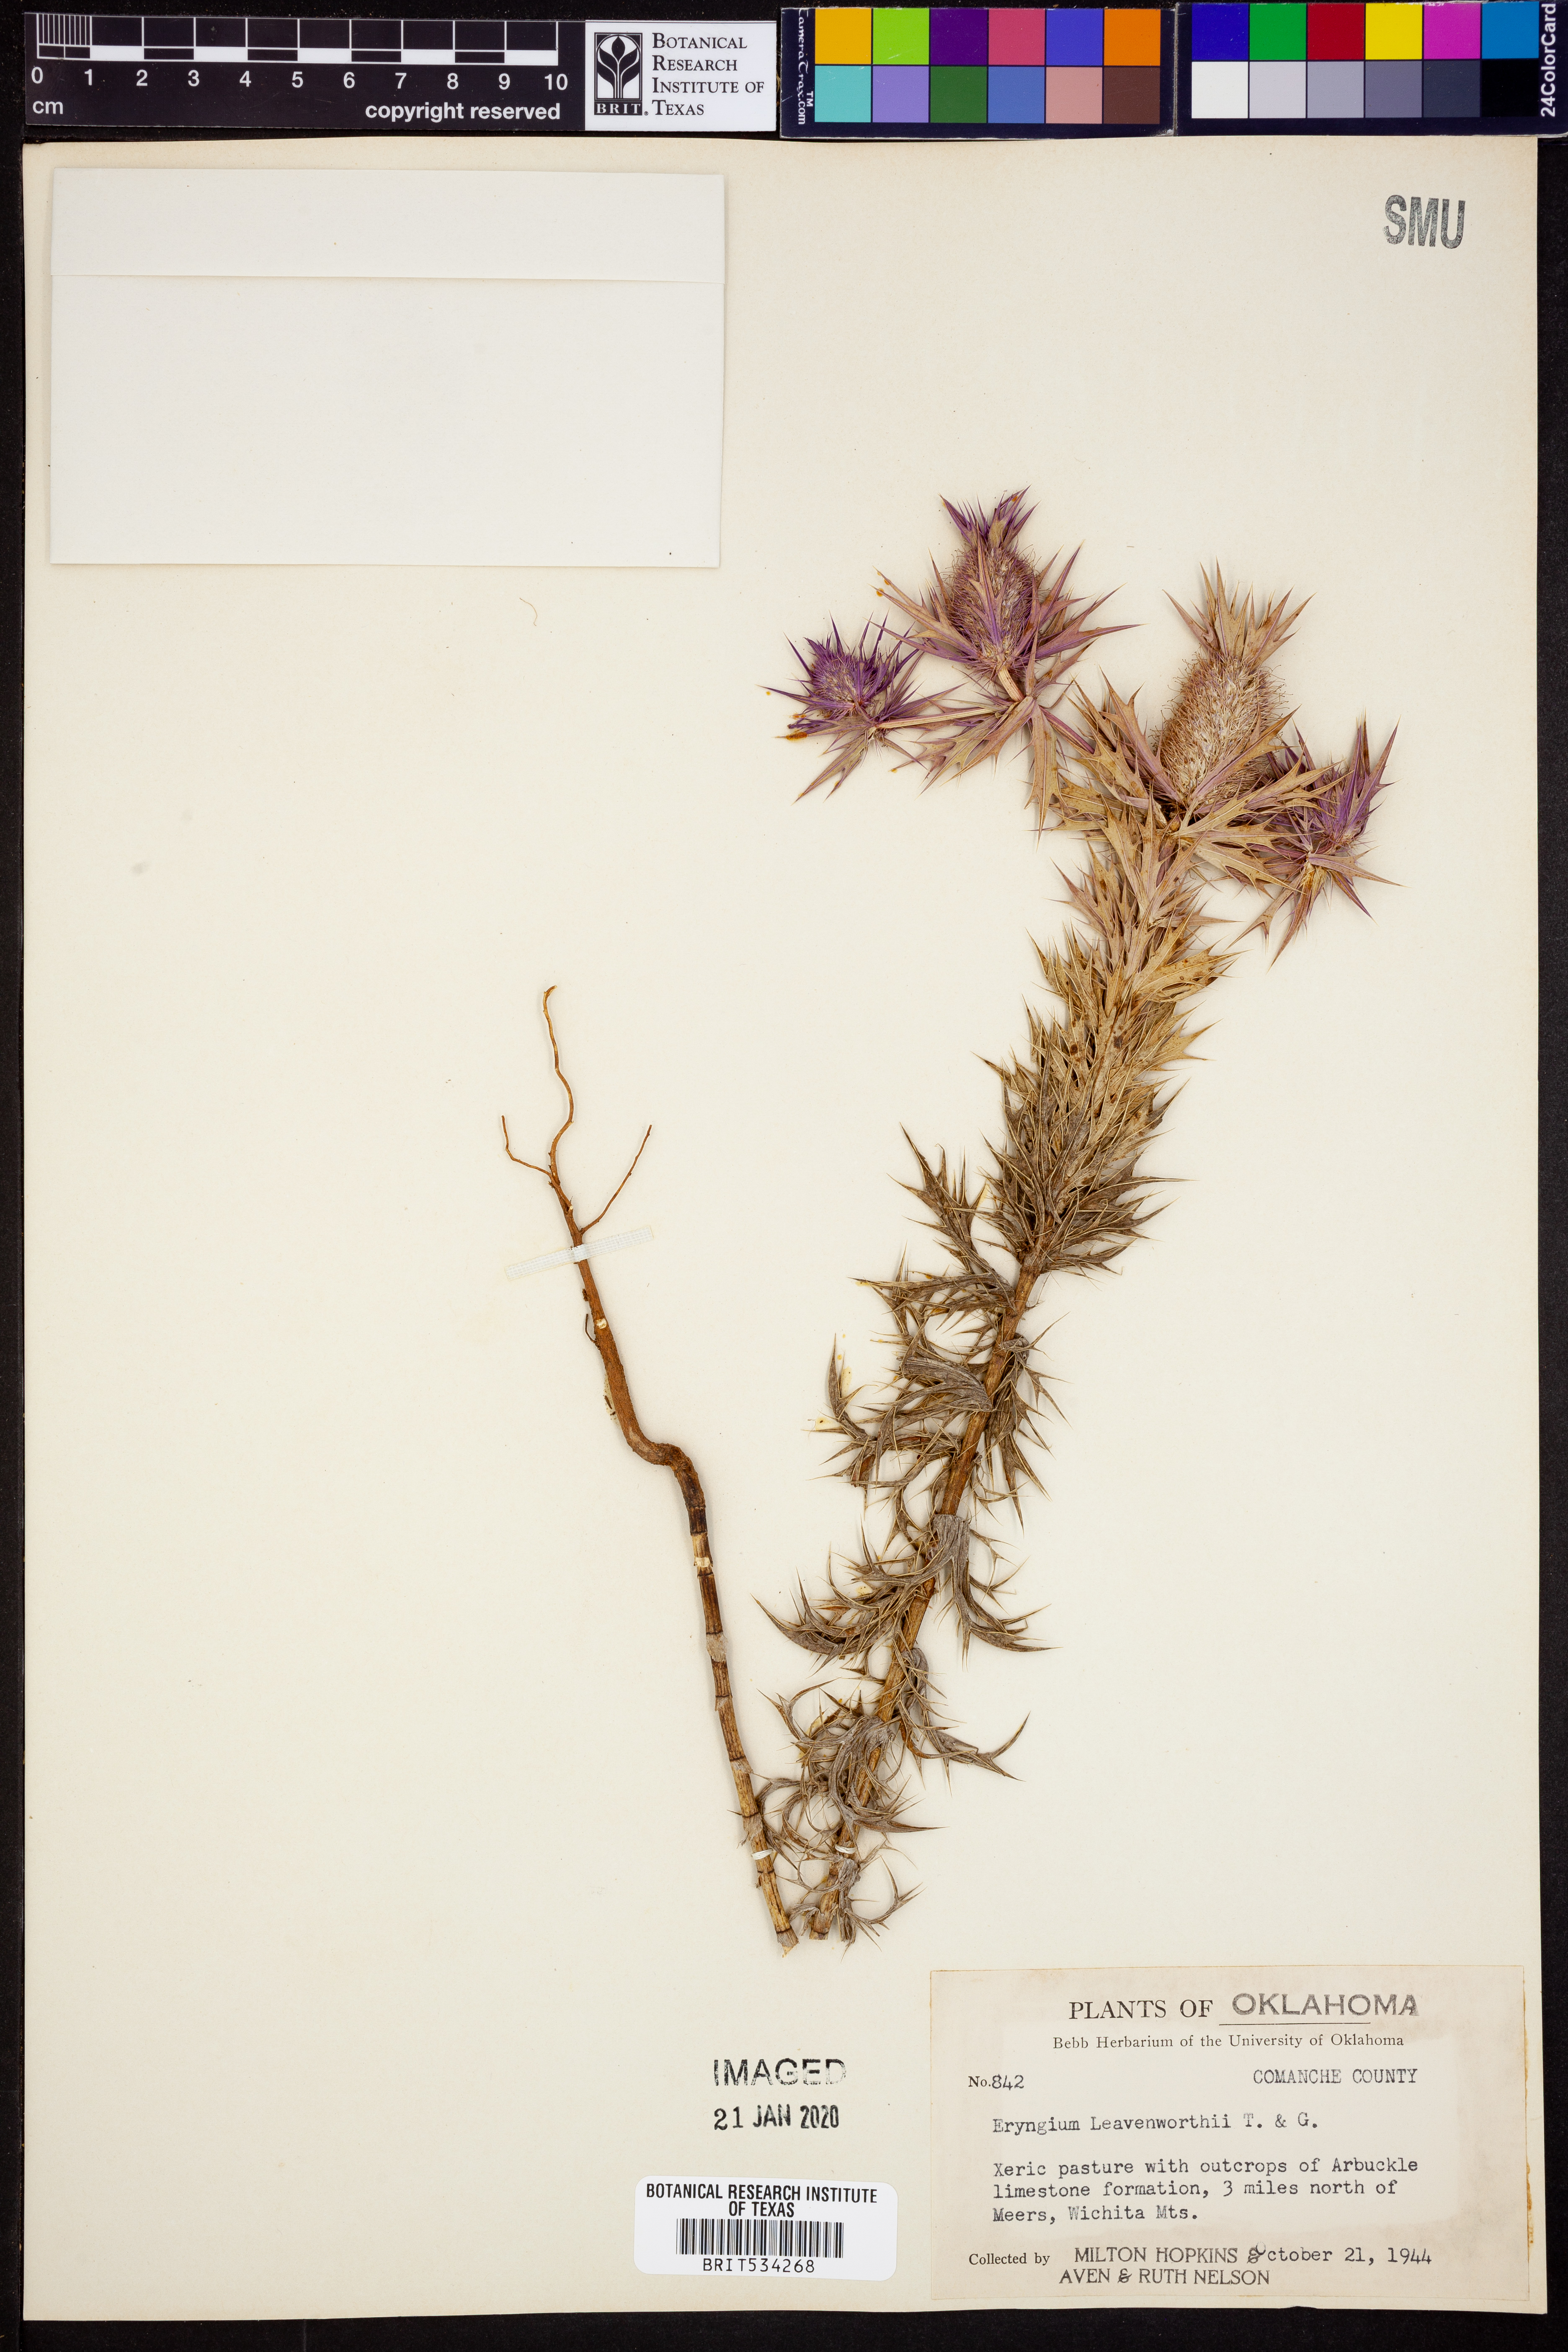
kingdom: Plantae
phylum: Tracheophyta
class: Magnoliopsida
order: Apiales
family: Apiaceae
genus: Eryngium
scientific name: Eryngium leavenworthii
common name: Leavenworth's eryngo
